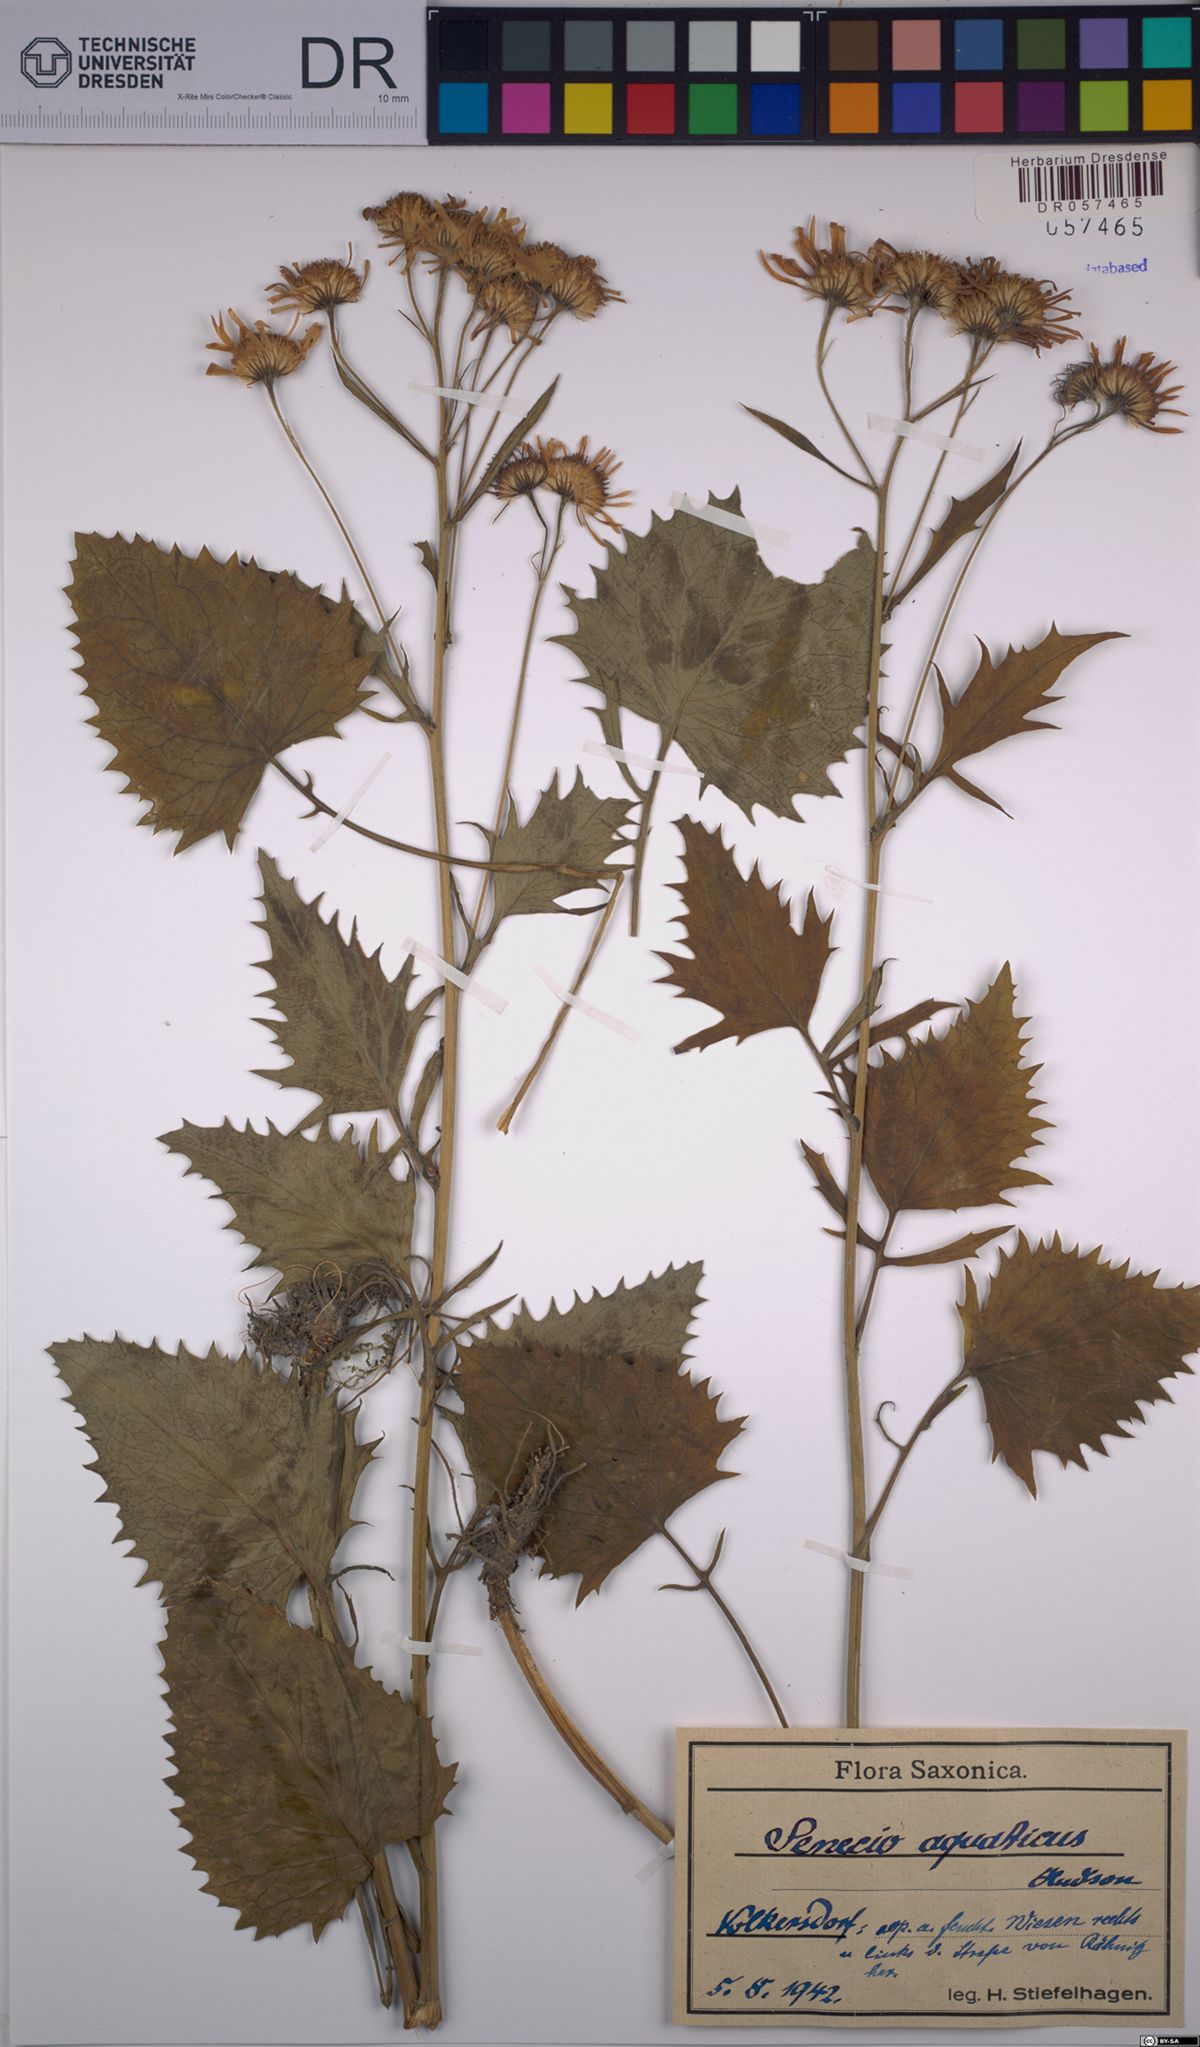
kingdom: Plantae
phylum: Tracheophyta
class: Magnoliopsida
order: Asterales
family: Asteraceae
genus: Jacobaea
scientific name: Jacobaea aquatica
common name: Water ragwort
